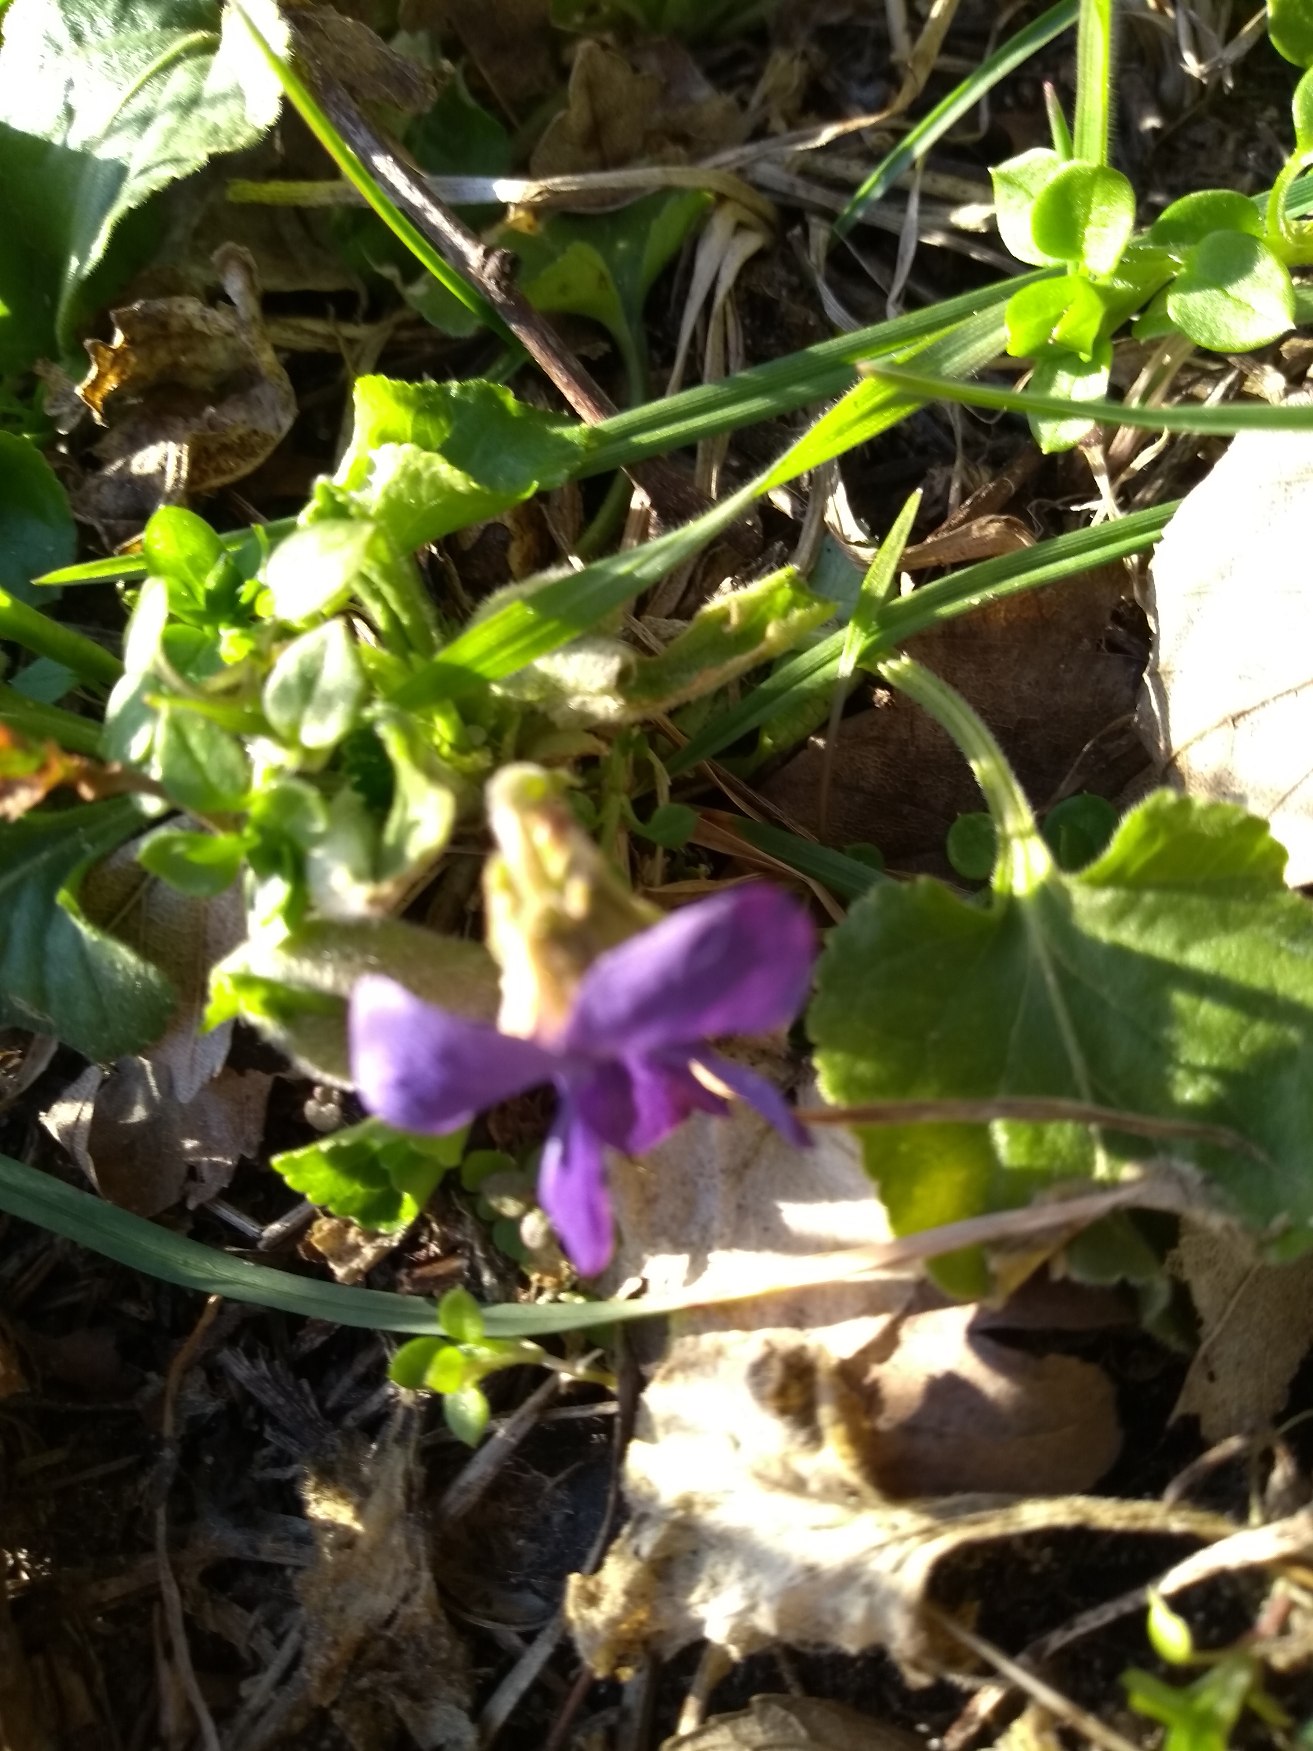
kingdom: Plantae
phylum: Tracheophyta
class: Magnoliopsida
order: Malpighiales
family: Violaceae
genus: Viola
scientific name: Viola odorata
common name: Marts-viol
